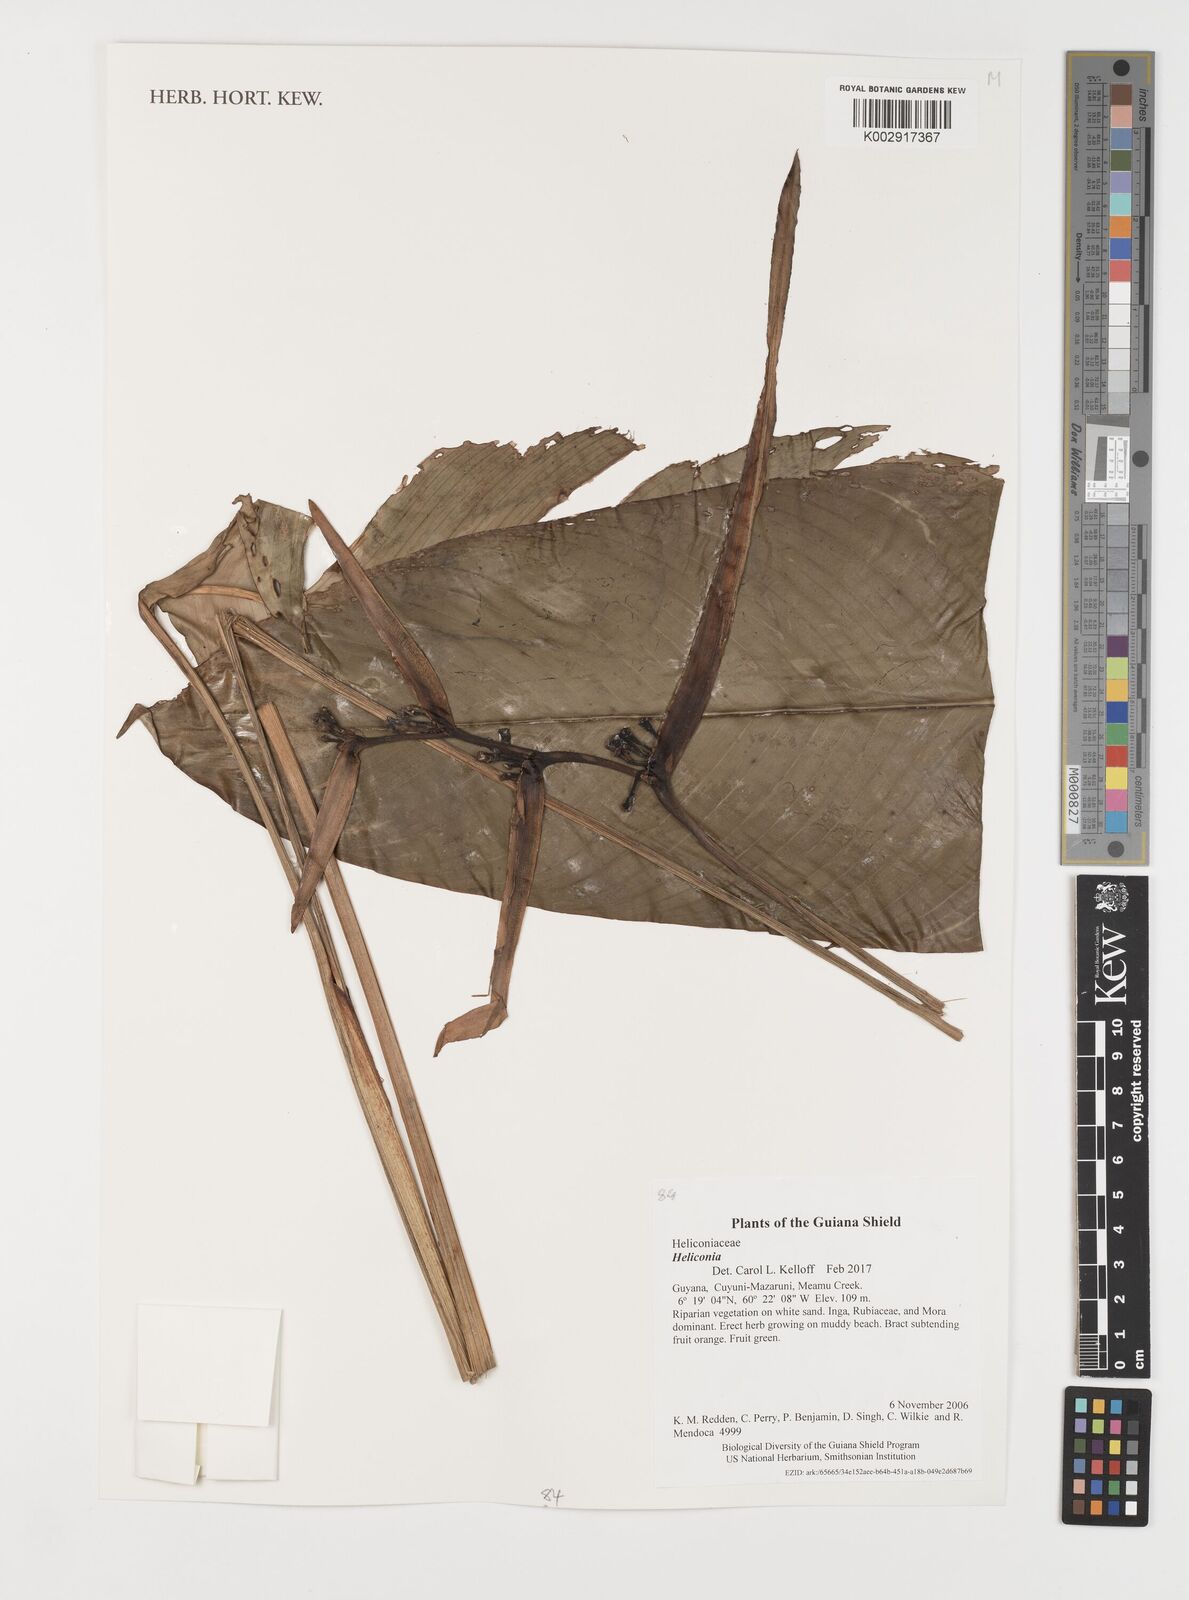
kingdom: Plantae
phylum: Tracheophyta
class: Liliopsida
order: Zingiberales
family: Heliconiaceae
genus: Heliconia
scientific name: Heliconia
